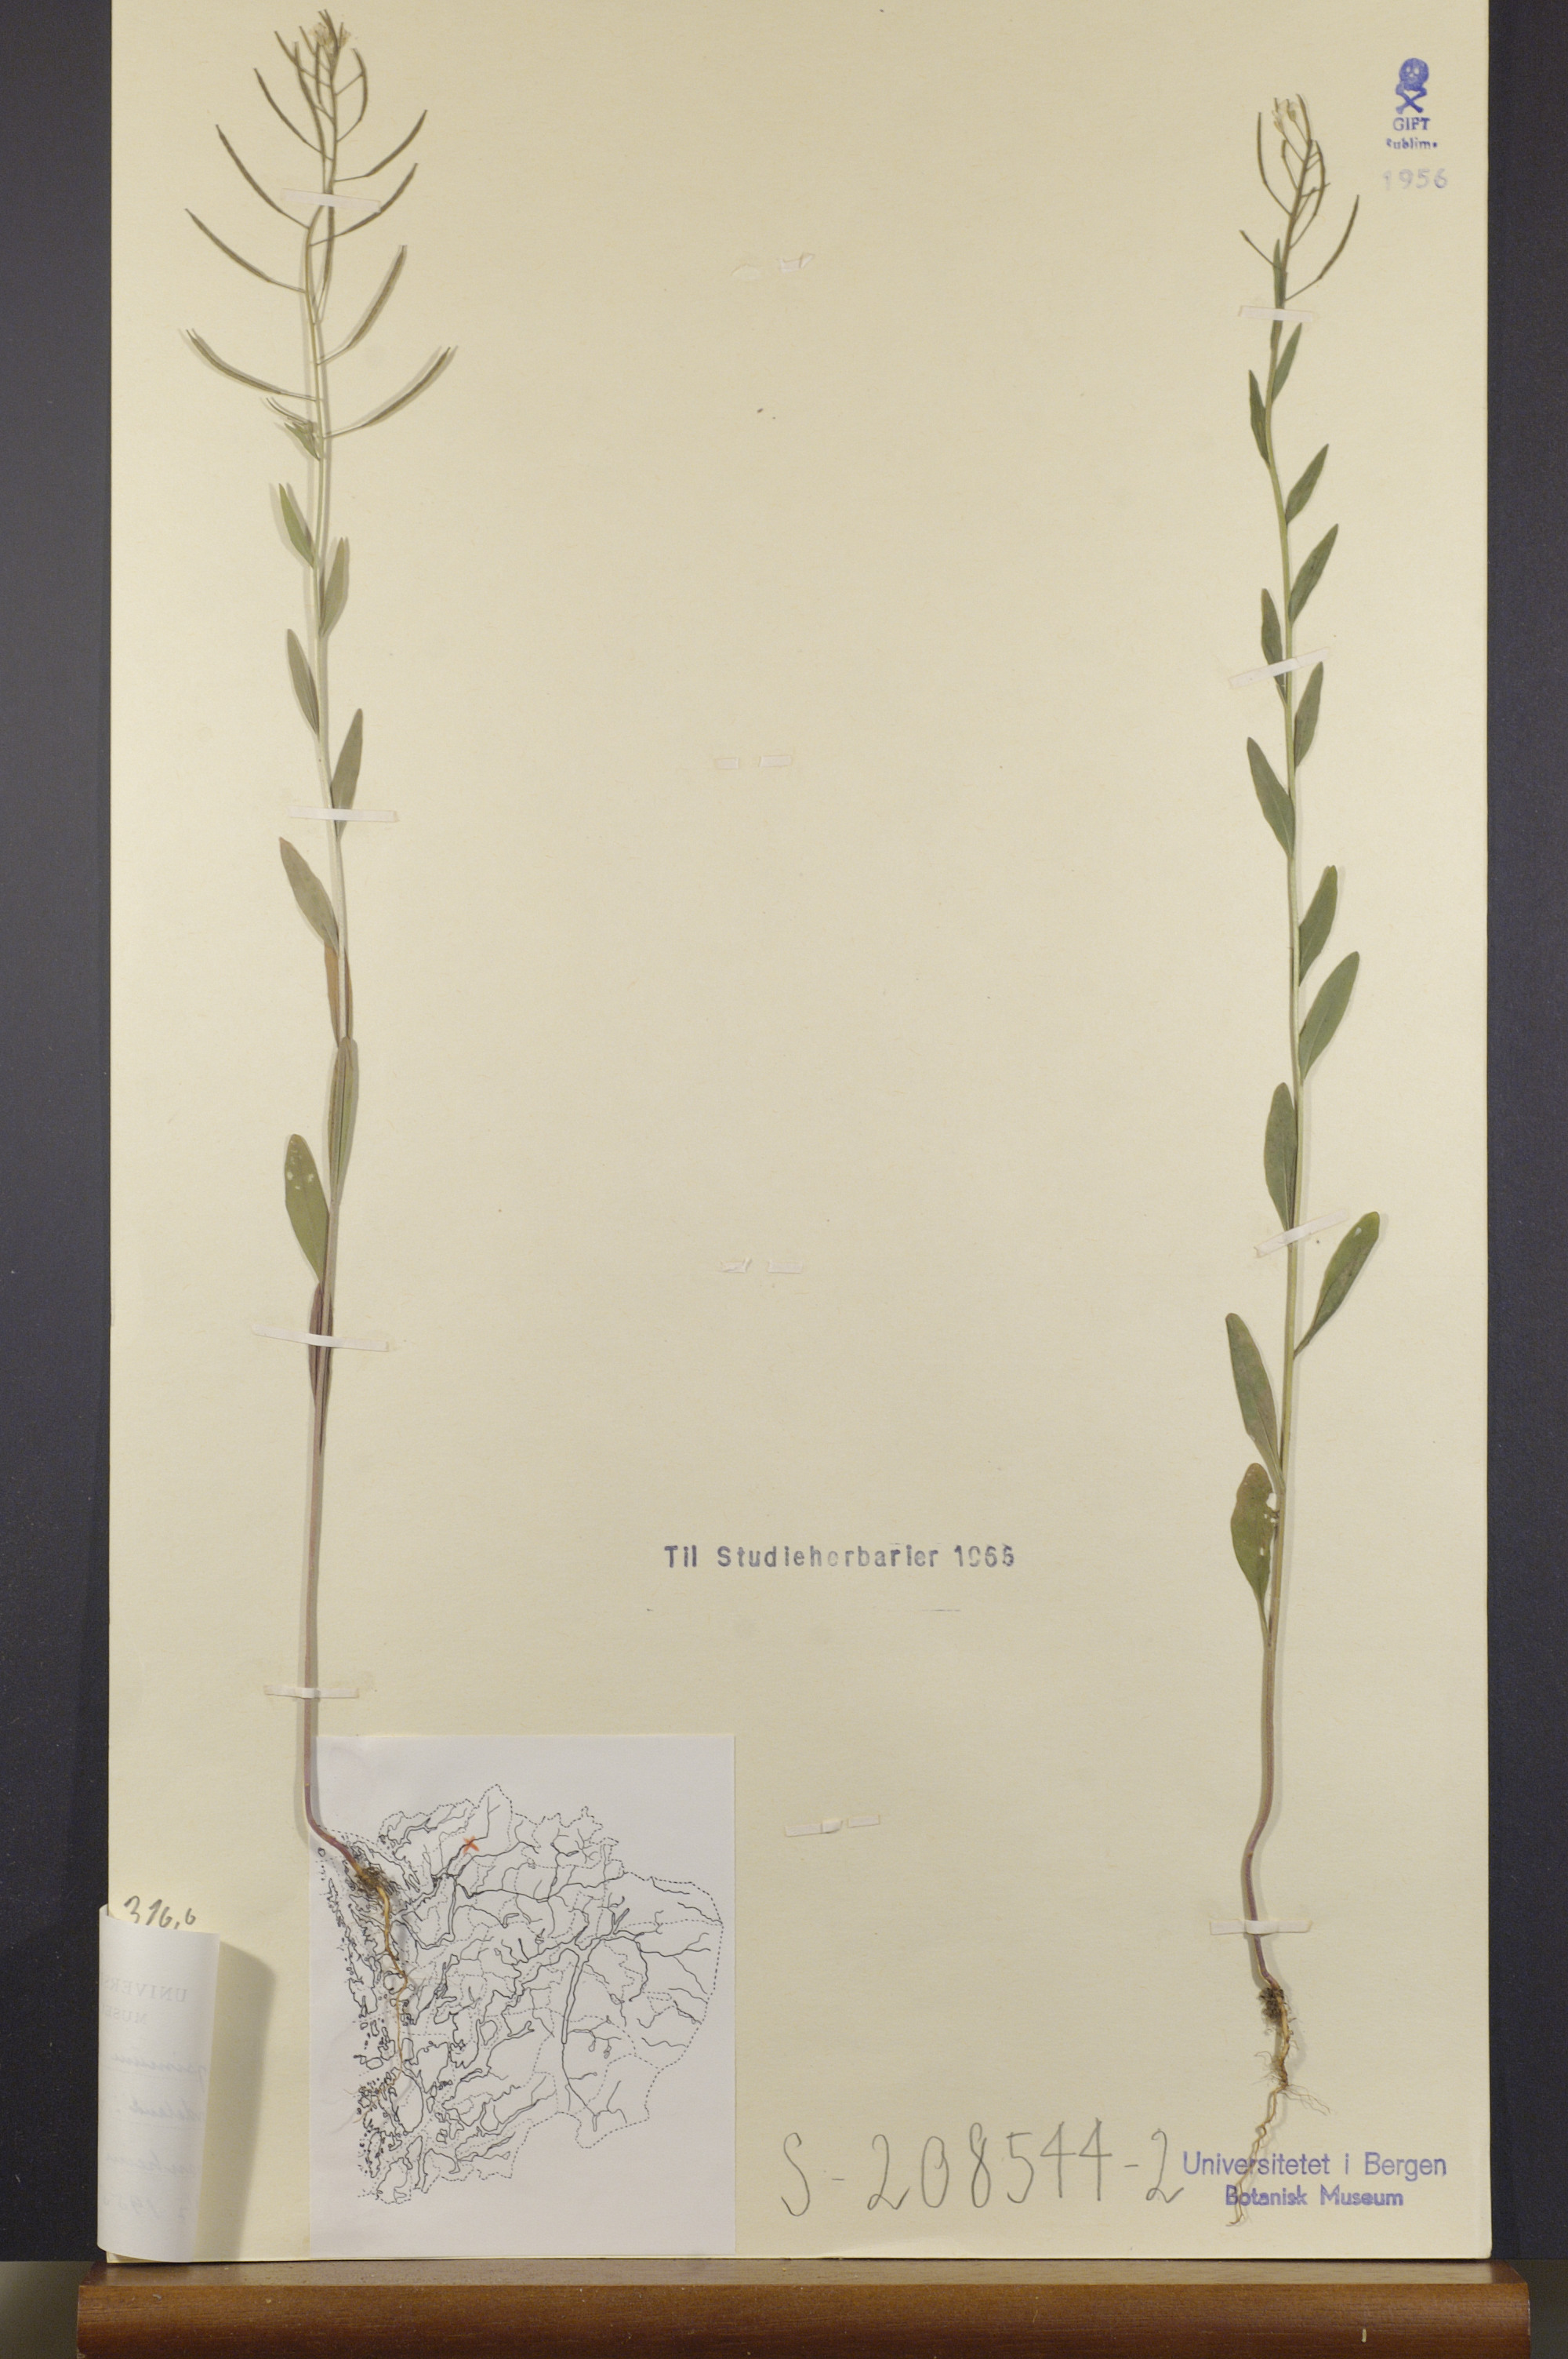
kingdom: Plantae
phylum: Tracheophyta
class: Magnoliopsida
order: Brassicales
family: Brassicaceae
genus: Erysimum
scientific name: Erysimum cheiranthoides
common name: Treacle mustard
